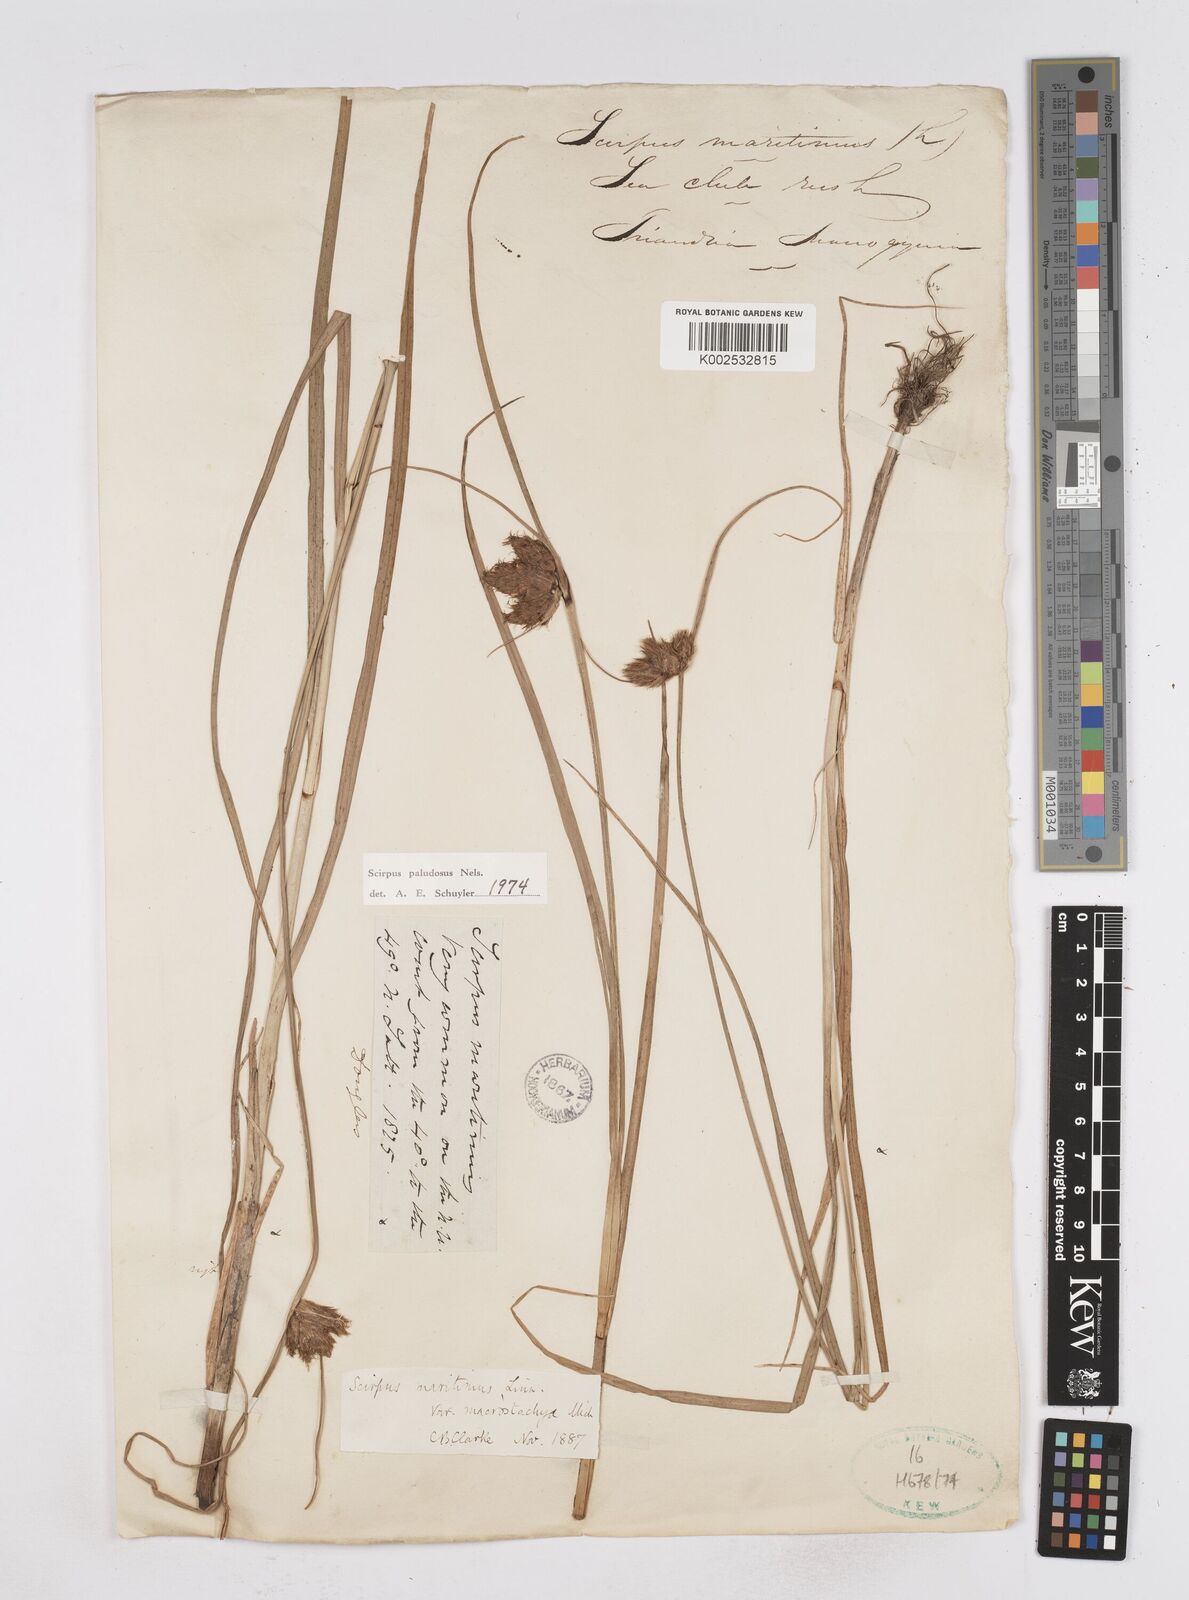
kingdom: Plantae
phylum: Tracheophyta
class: Liliopsida
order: Poales
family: Cyperaceae
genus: Bolboschoenus
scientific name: Bolboschoenus maritimus
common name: Sea club-rush
